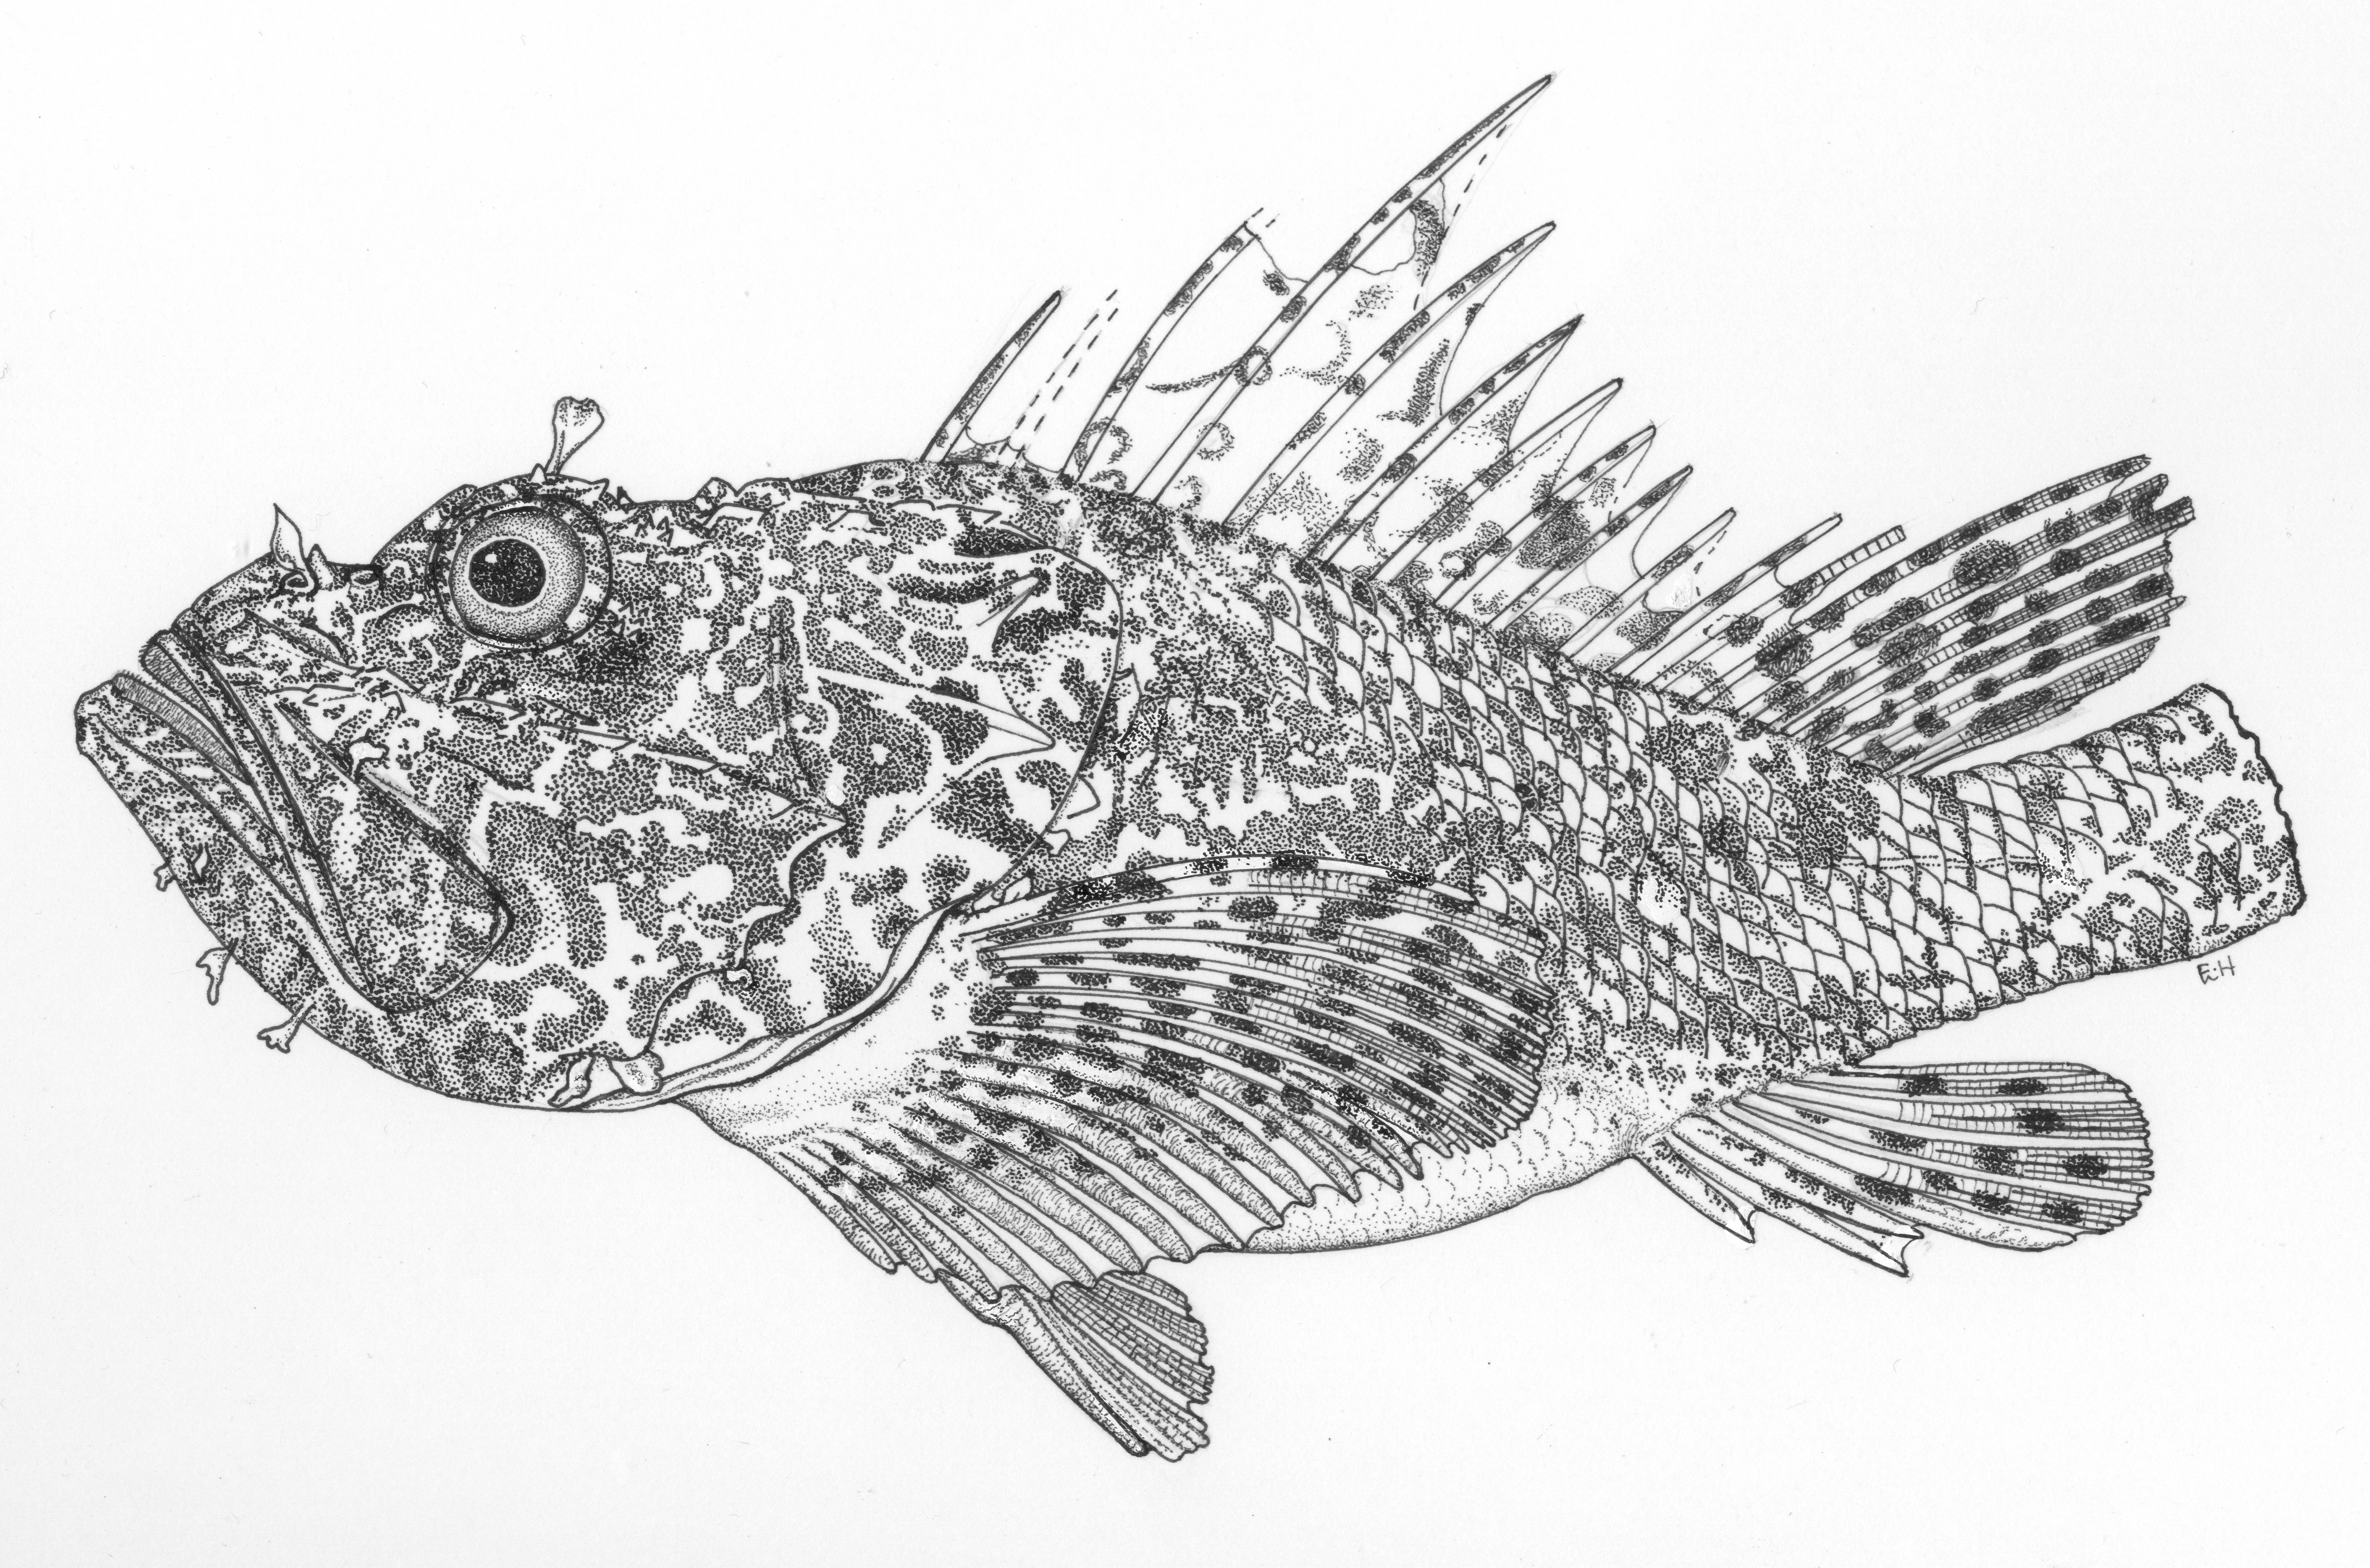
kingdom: Animalia
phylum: Chordata
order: Scorpaeniformes
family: Scorpaenidae
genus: Scorpaena
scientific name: Scorpaena
